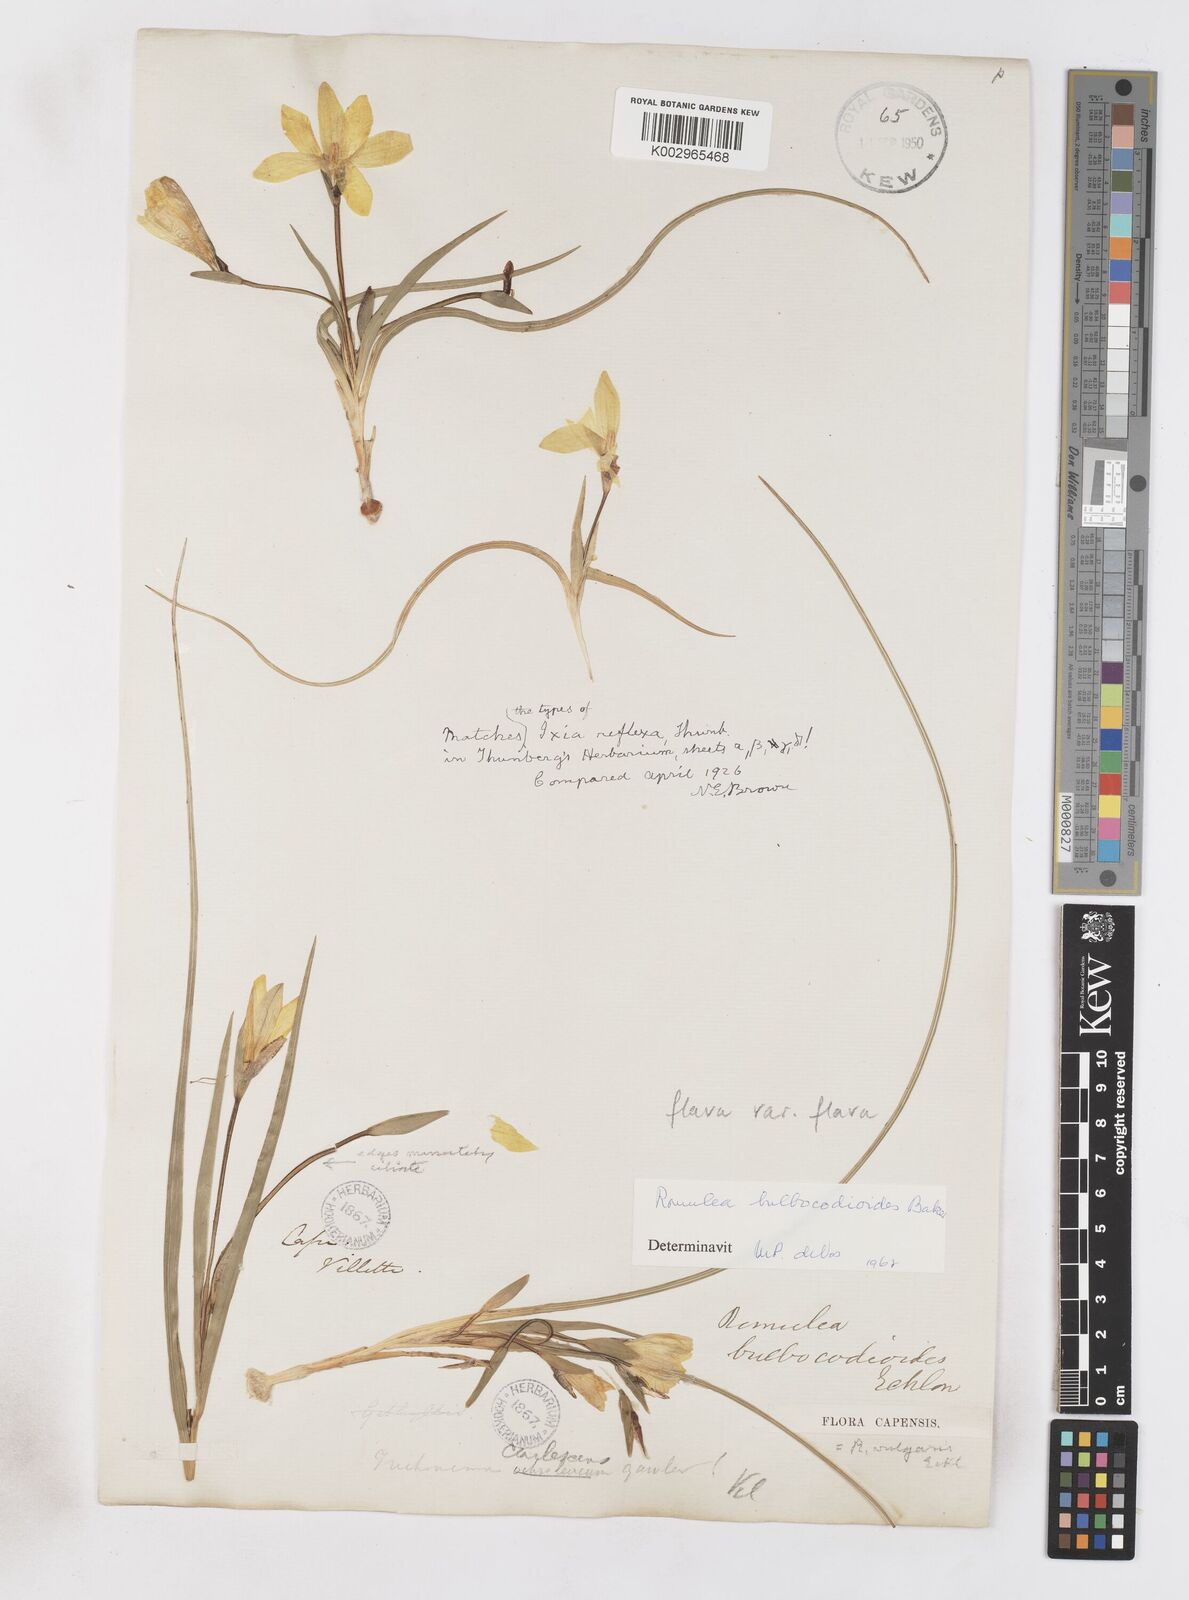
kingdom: Plantae
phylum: Tracheophyta
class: Liliopsida
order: Asparagales
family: Iridaceae
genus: Romulea
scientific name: Romulea flava
